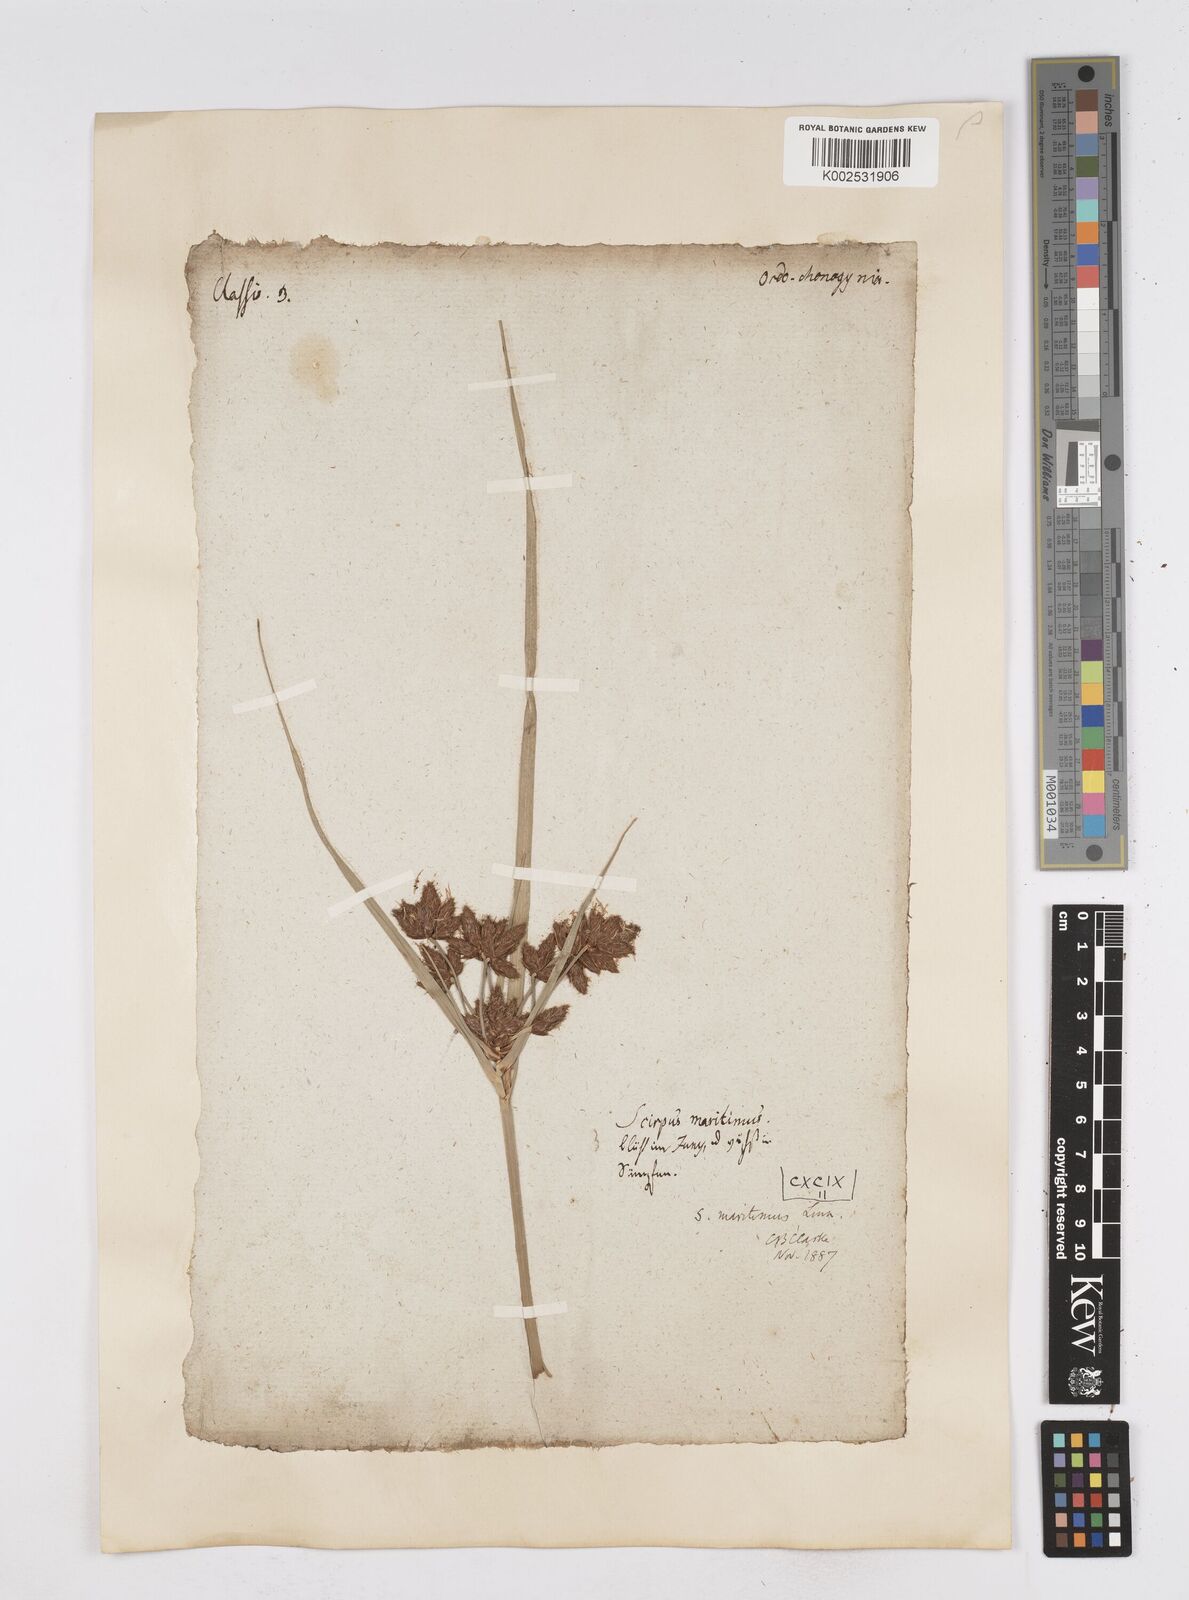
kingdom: Plantae
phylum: Tracheophyta
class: Liliopsida
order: Poales
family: Cyperaceae
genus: Bolboschoenus
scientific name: Bolboschoenus maritimus
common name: Sea club-rush
